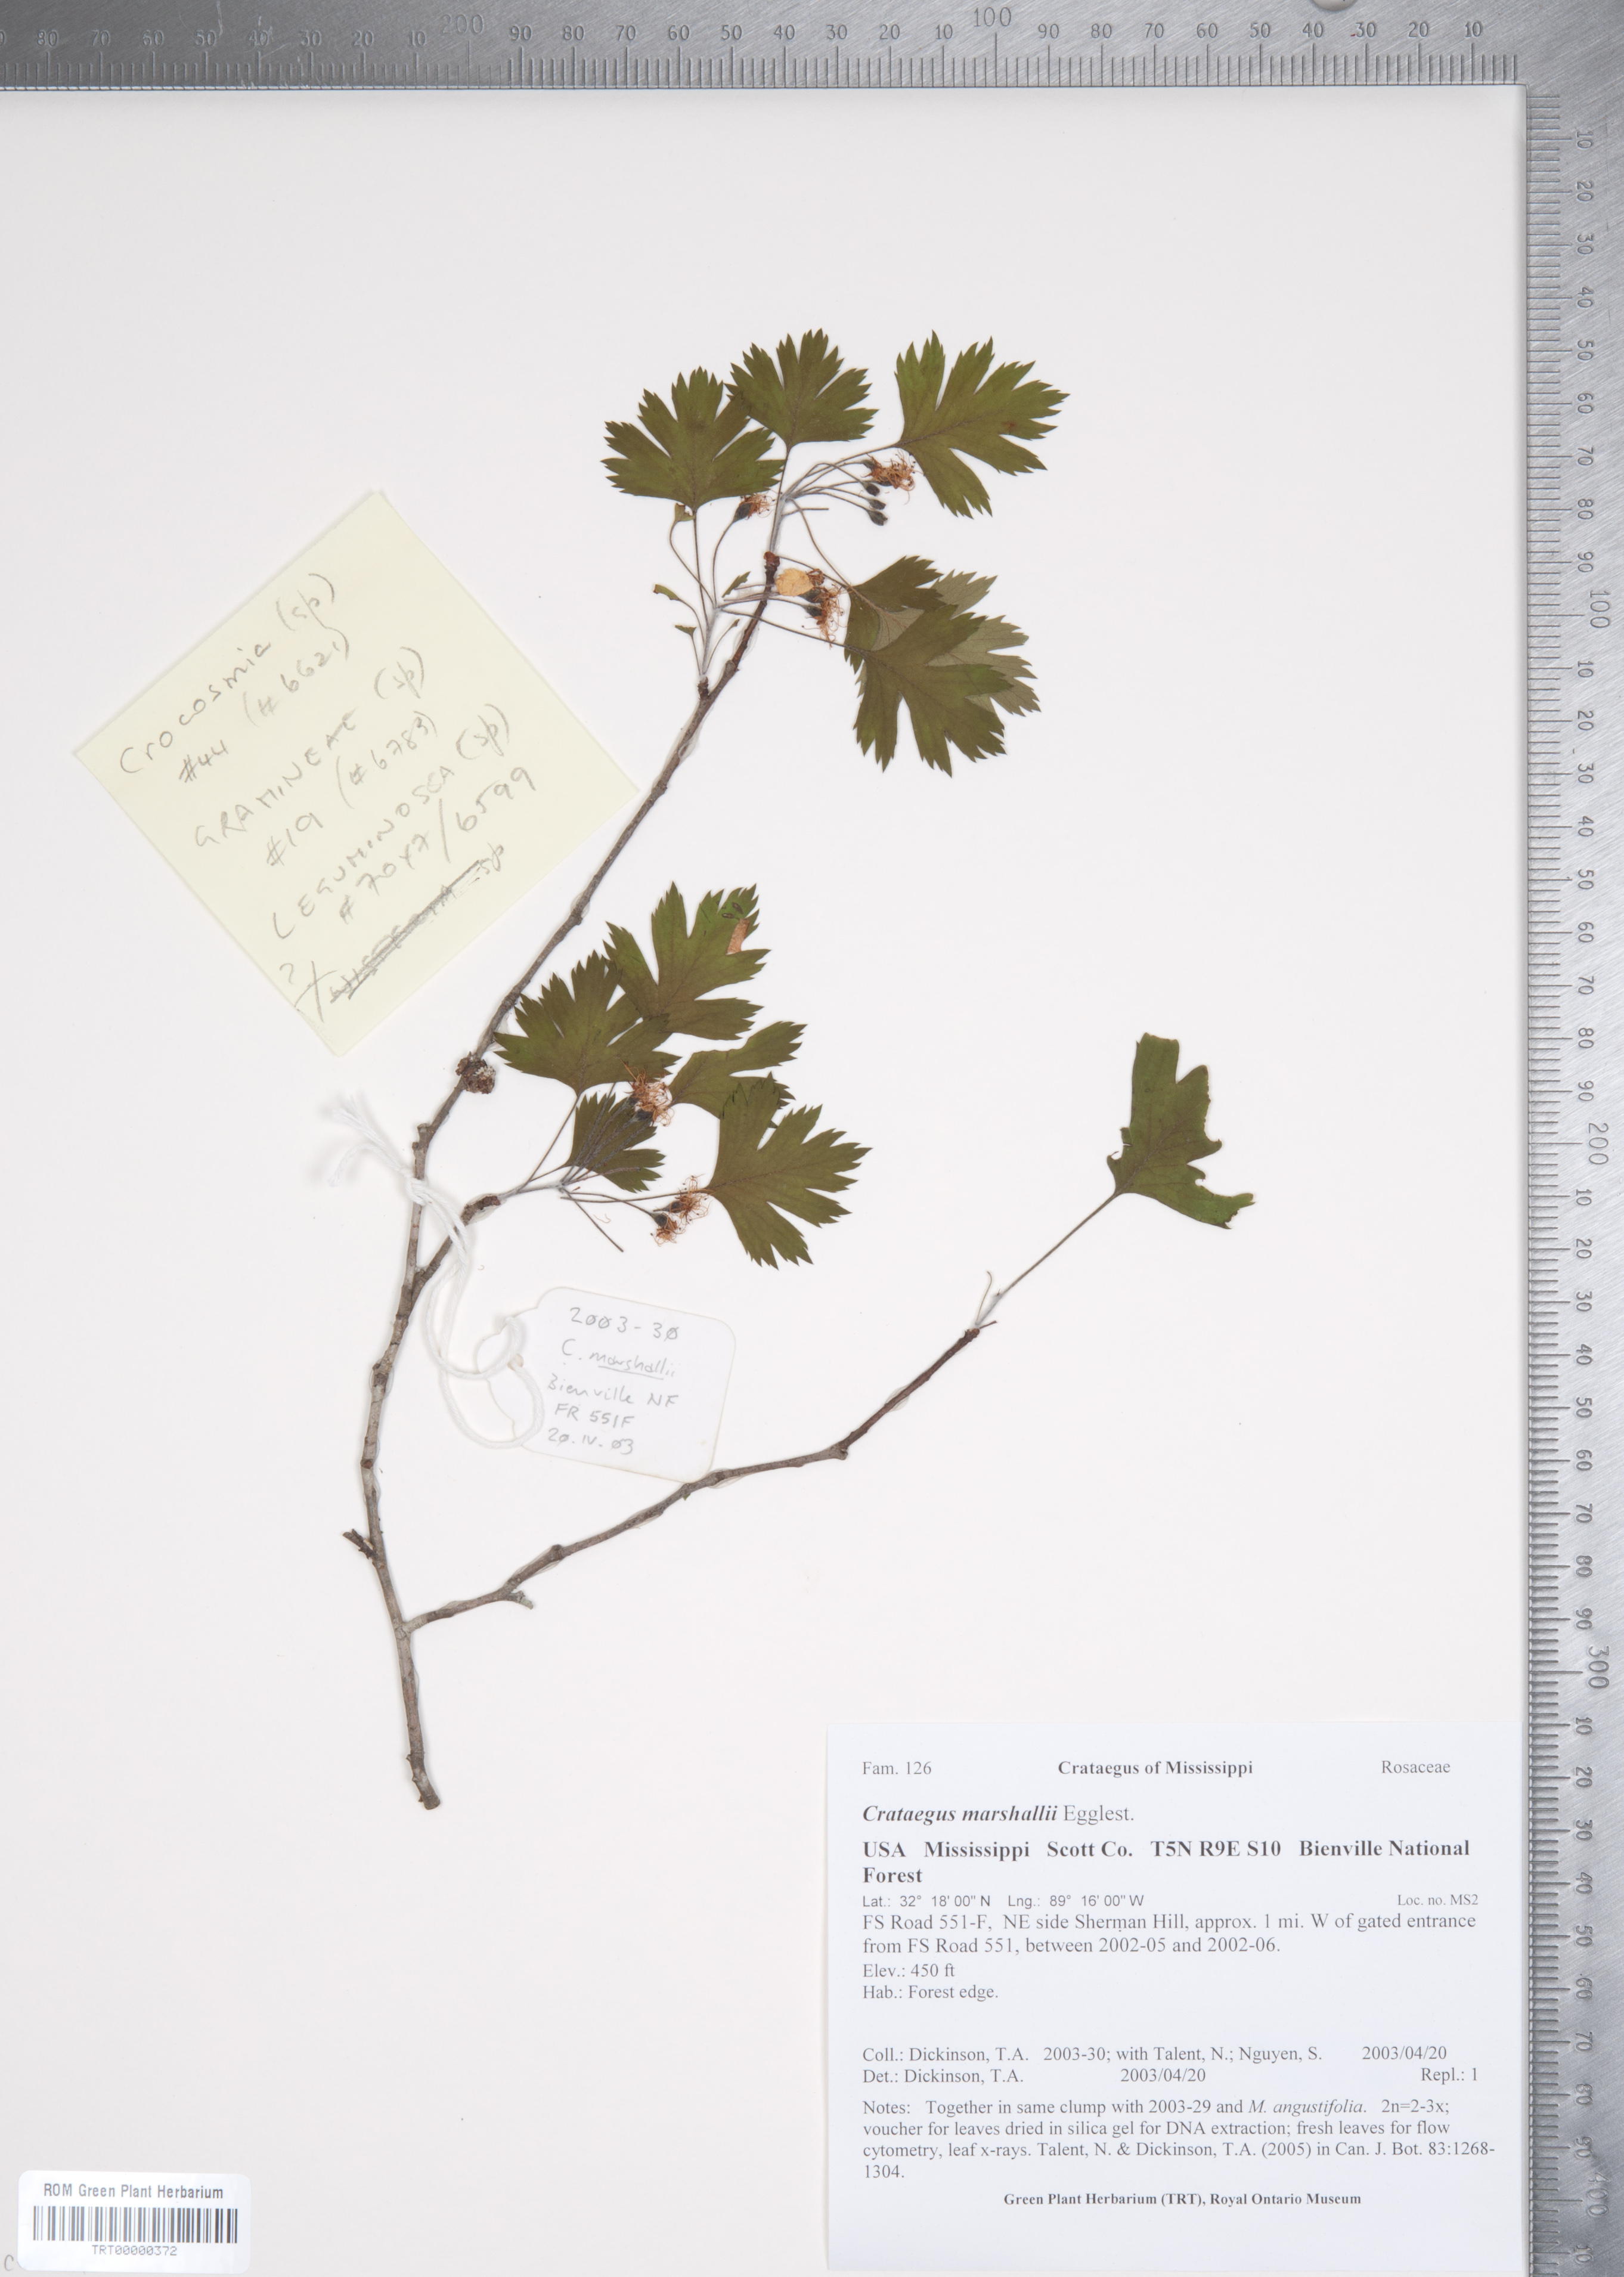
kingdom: Plantae
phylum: Tracheophyta
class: Magnoliopsida
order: Rosales
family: Rosaceae
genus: Crataegus
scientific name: Crataegus marshallii
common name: Parsley-hawthorn
